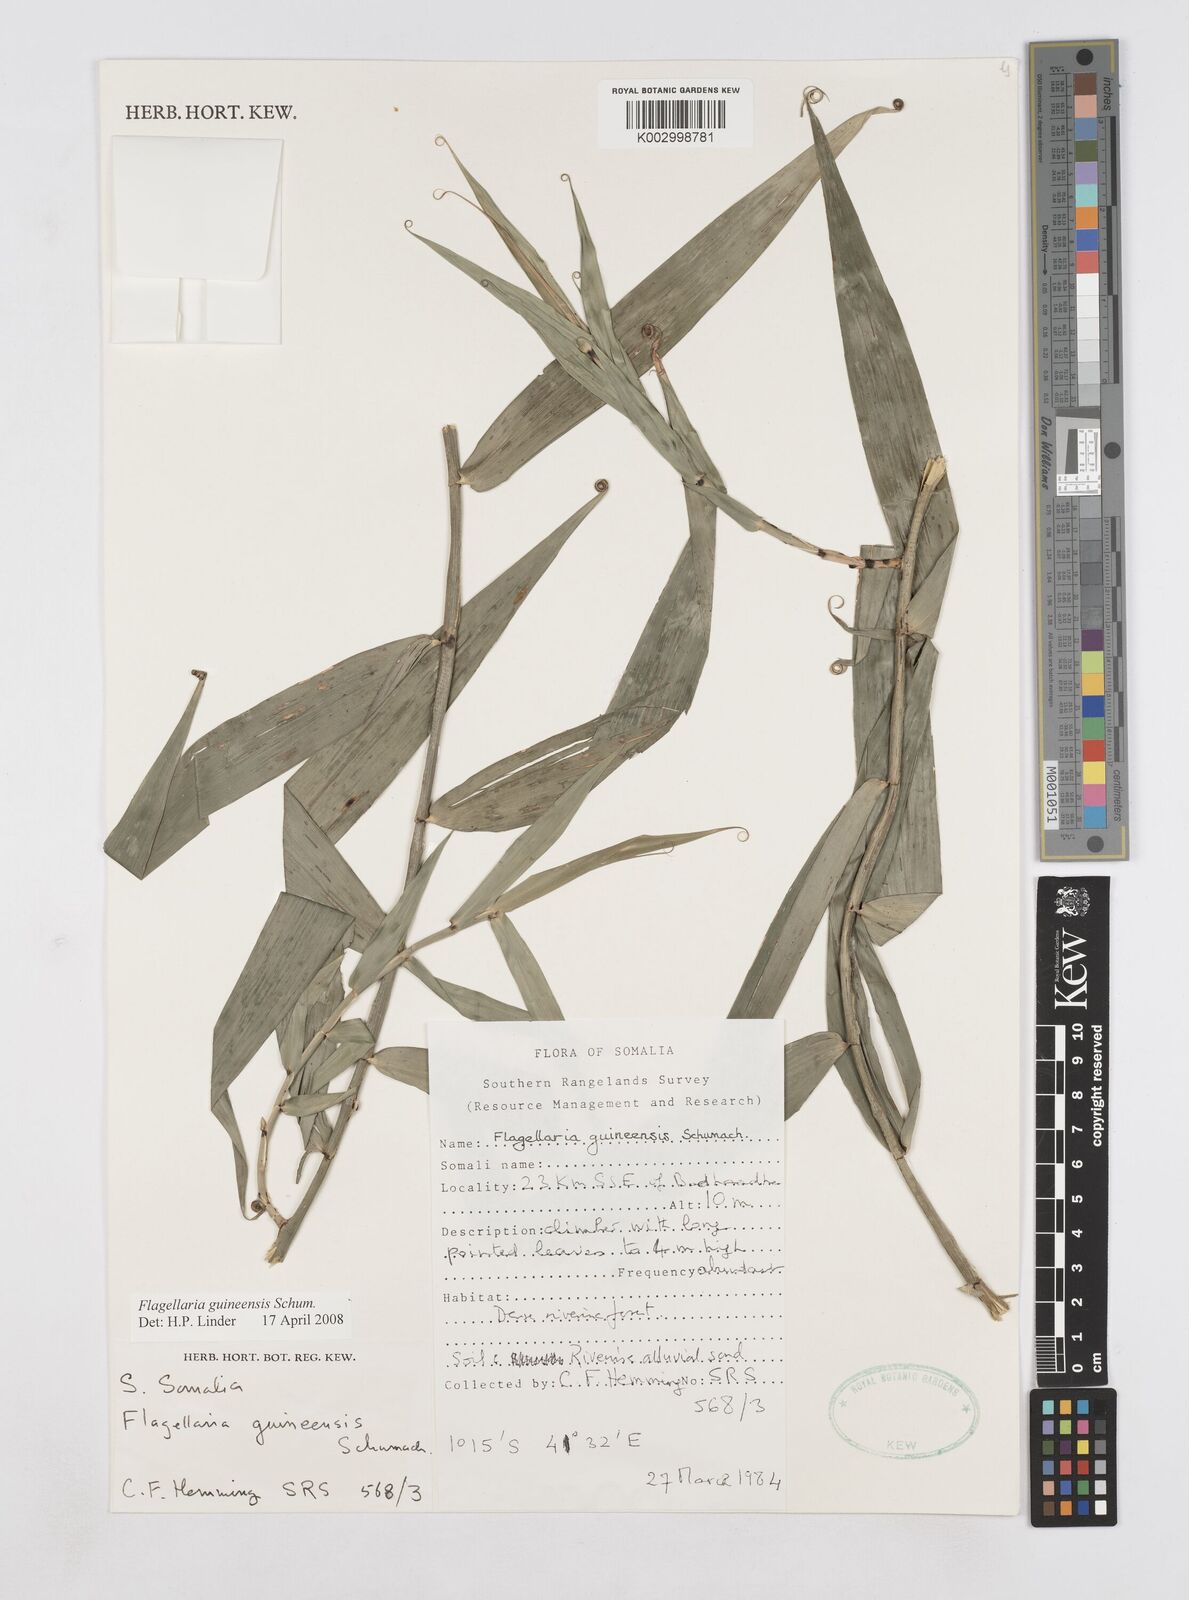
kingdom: Plantae
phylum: Tracheophyta
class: Liliopsida
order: Poales
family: Flagellariaceae
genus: Flagellaria
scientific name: Flagellaria guineensis
